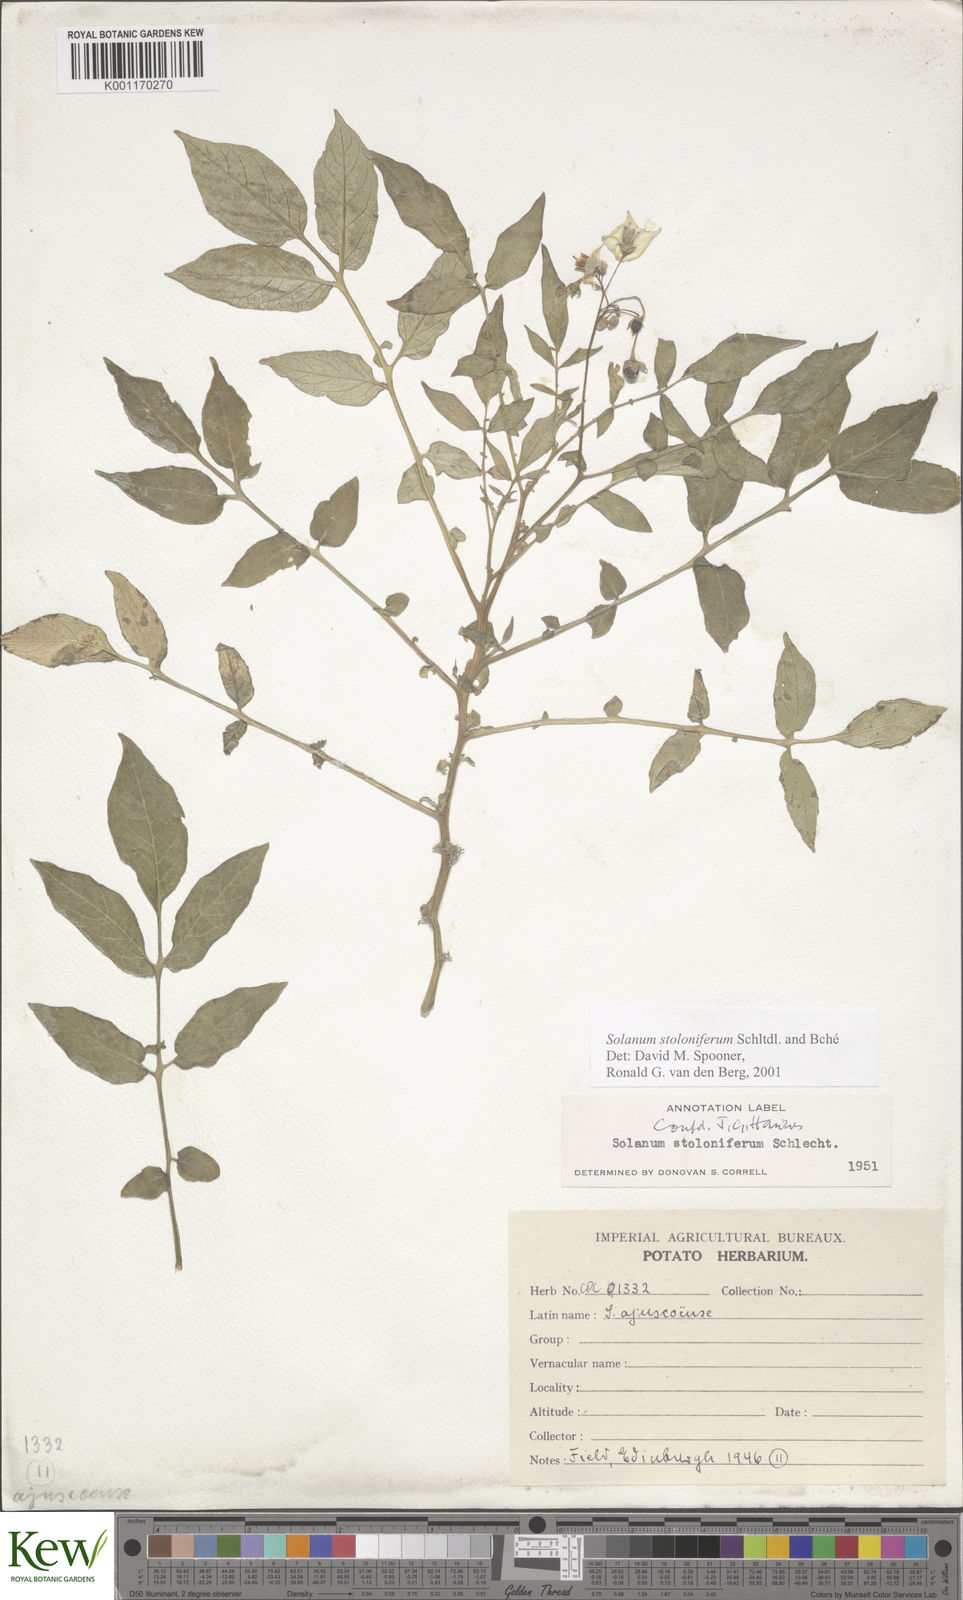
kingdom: Plantae
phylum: Tracheophyta
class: Magnoliopsida
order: Solanales
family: Solanaceae
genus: Solanum
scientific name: Solanum stoloniferum
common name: Fendler's nighshade
